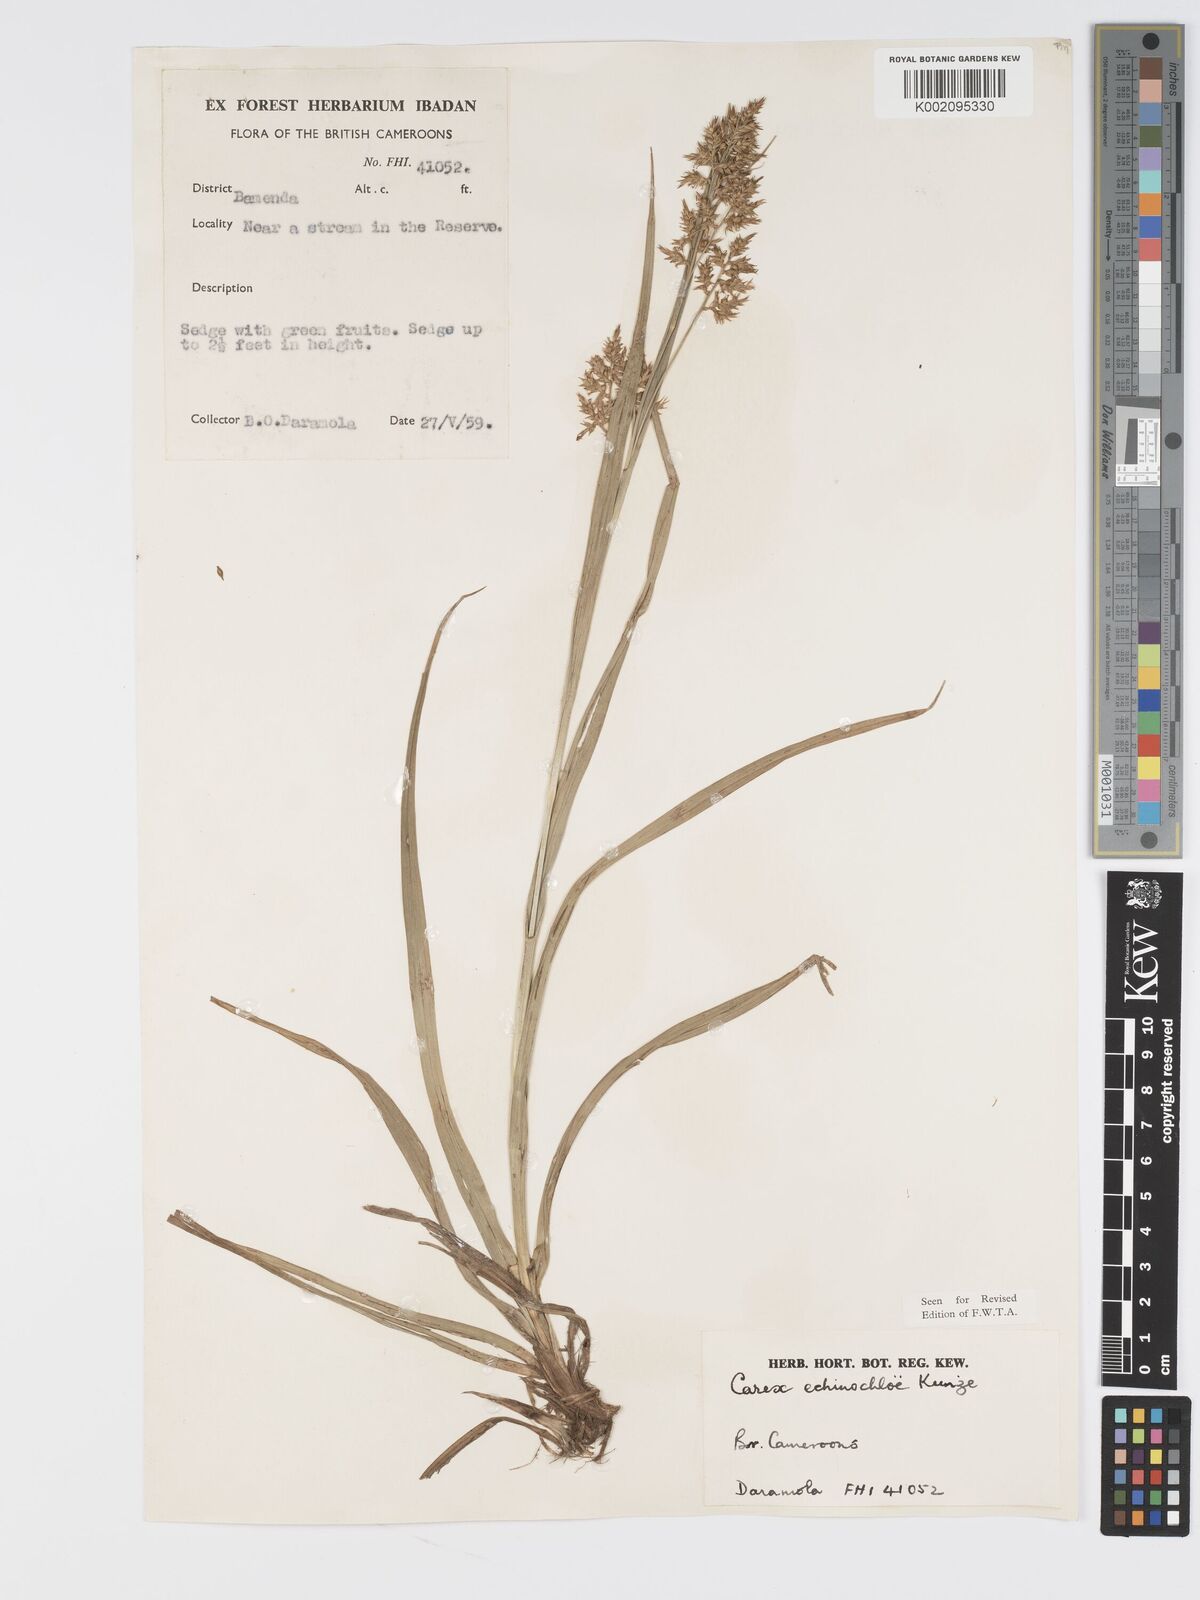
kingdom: Plantae
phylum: Tracheophyta
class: Liliopsida
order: Poales
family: Cyperaceae
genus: Carex
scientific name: Carex echinochloe
